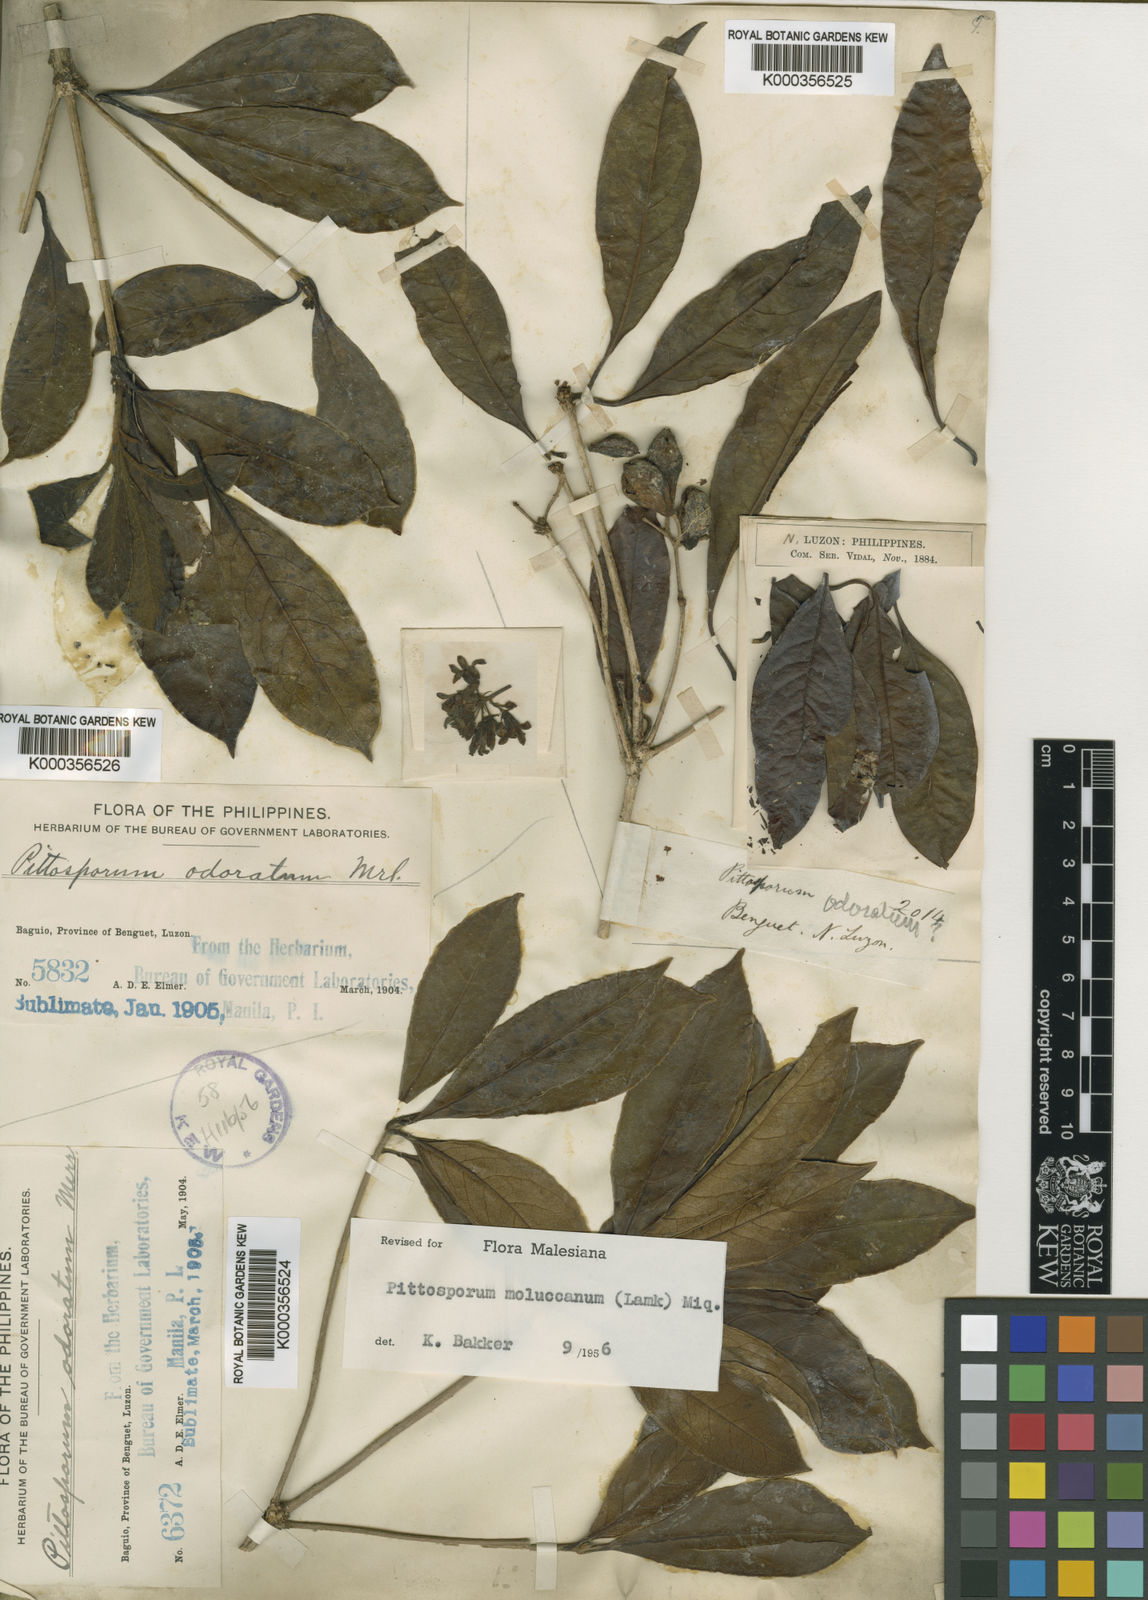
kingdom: Plantae
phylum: Tracheophyta
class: Magnoliopsida
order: Apiales
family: Pittosporaceae
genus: Pittosporum
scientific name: Pittosporum moluccanum
